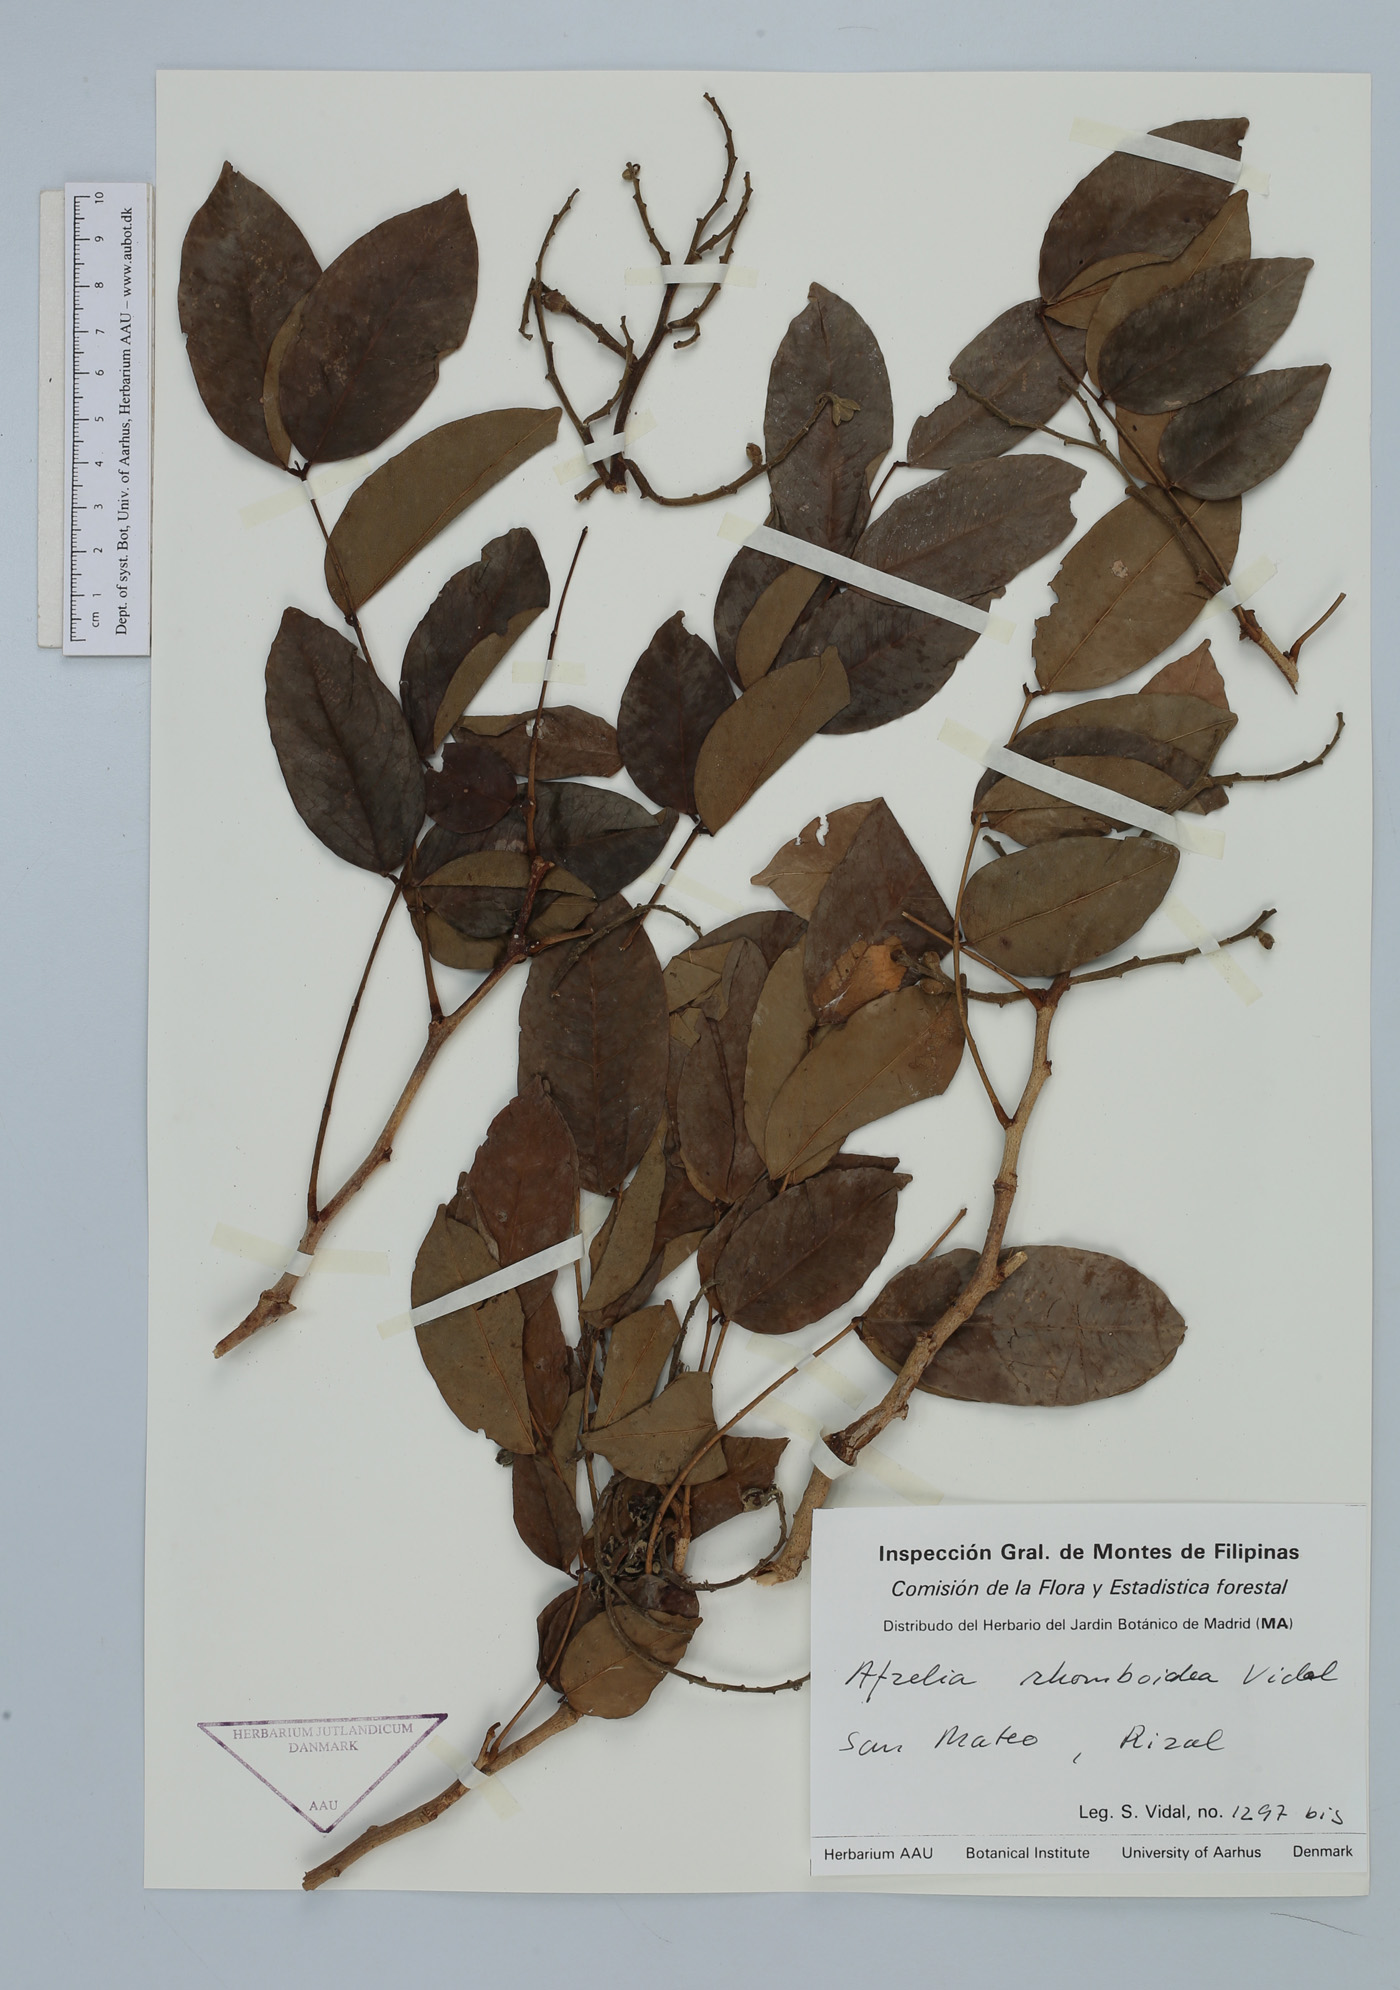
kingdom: Plantae
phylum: Tracheophyta
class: Magnoliopsida
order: Fabales
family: Fabaceae
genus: Afzelia
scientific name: Afzelia rhomboidea
